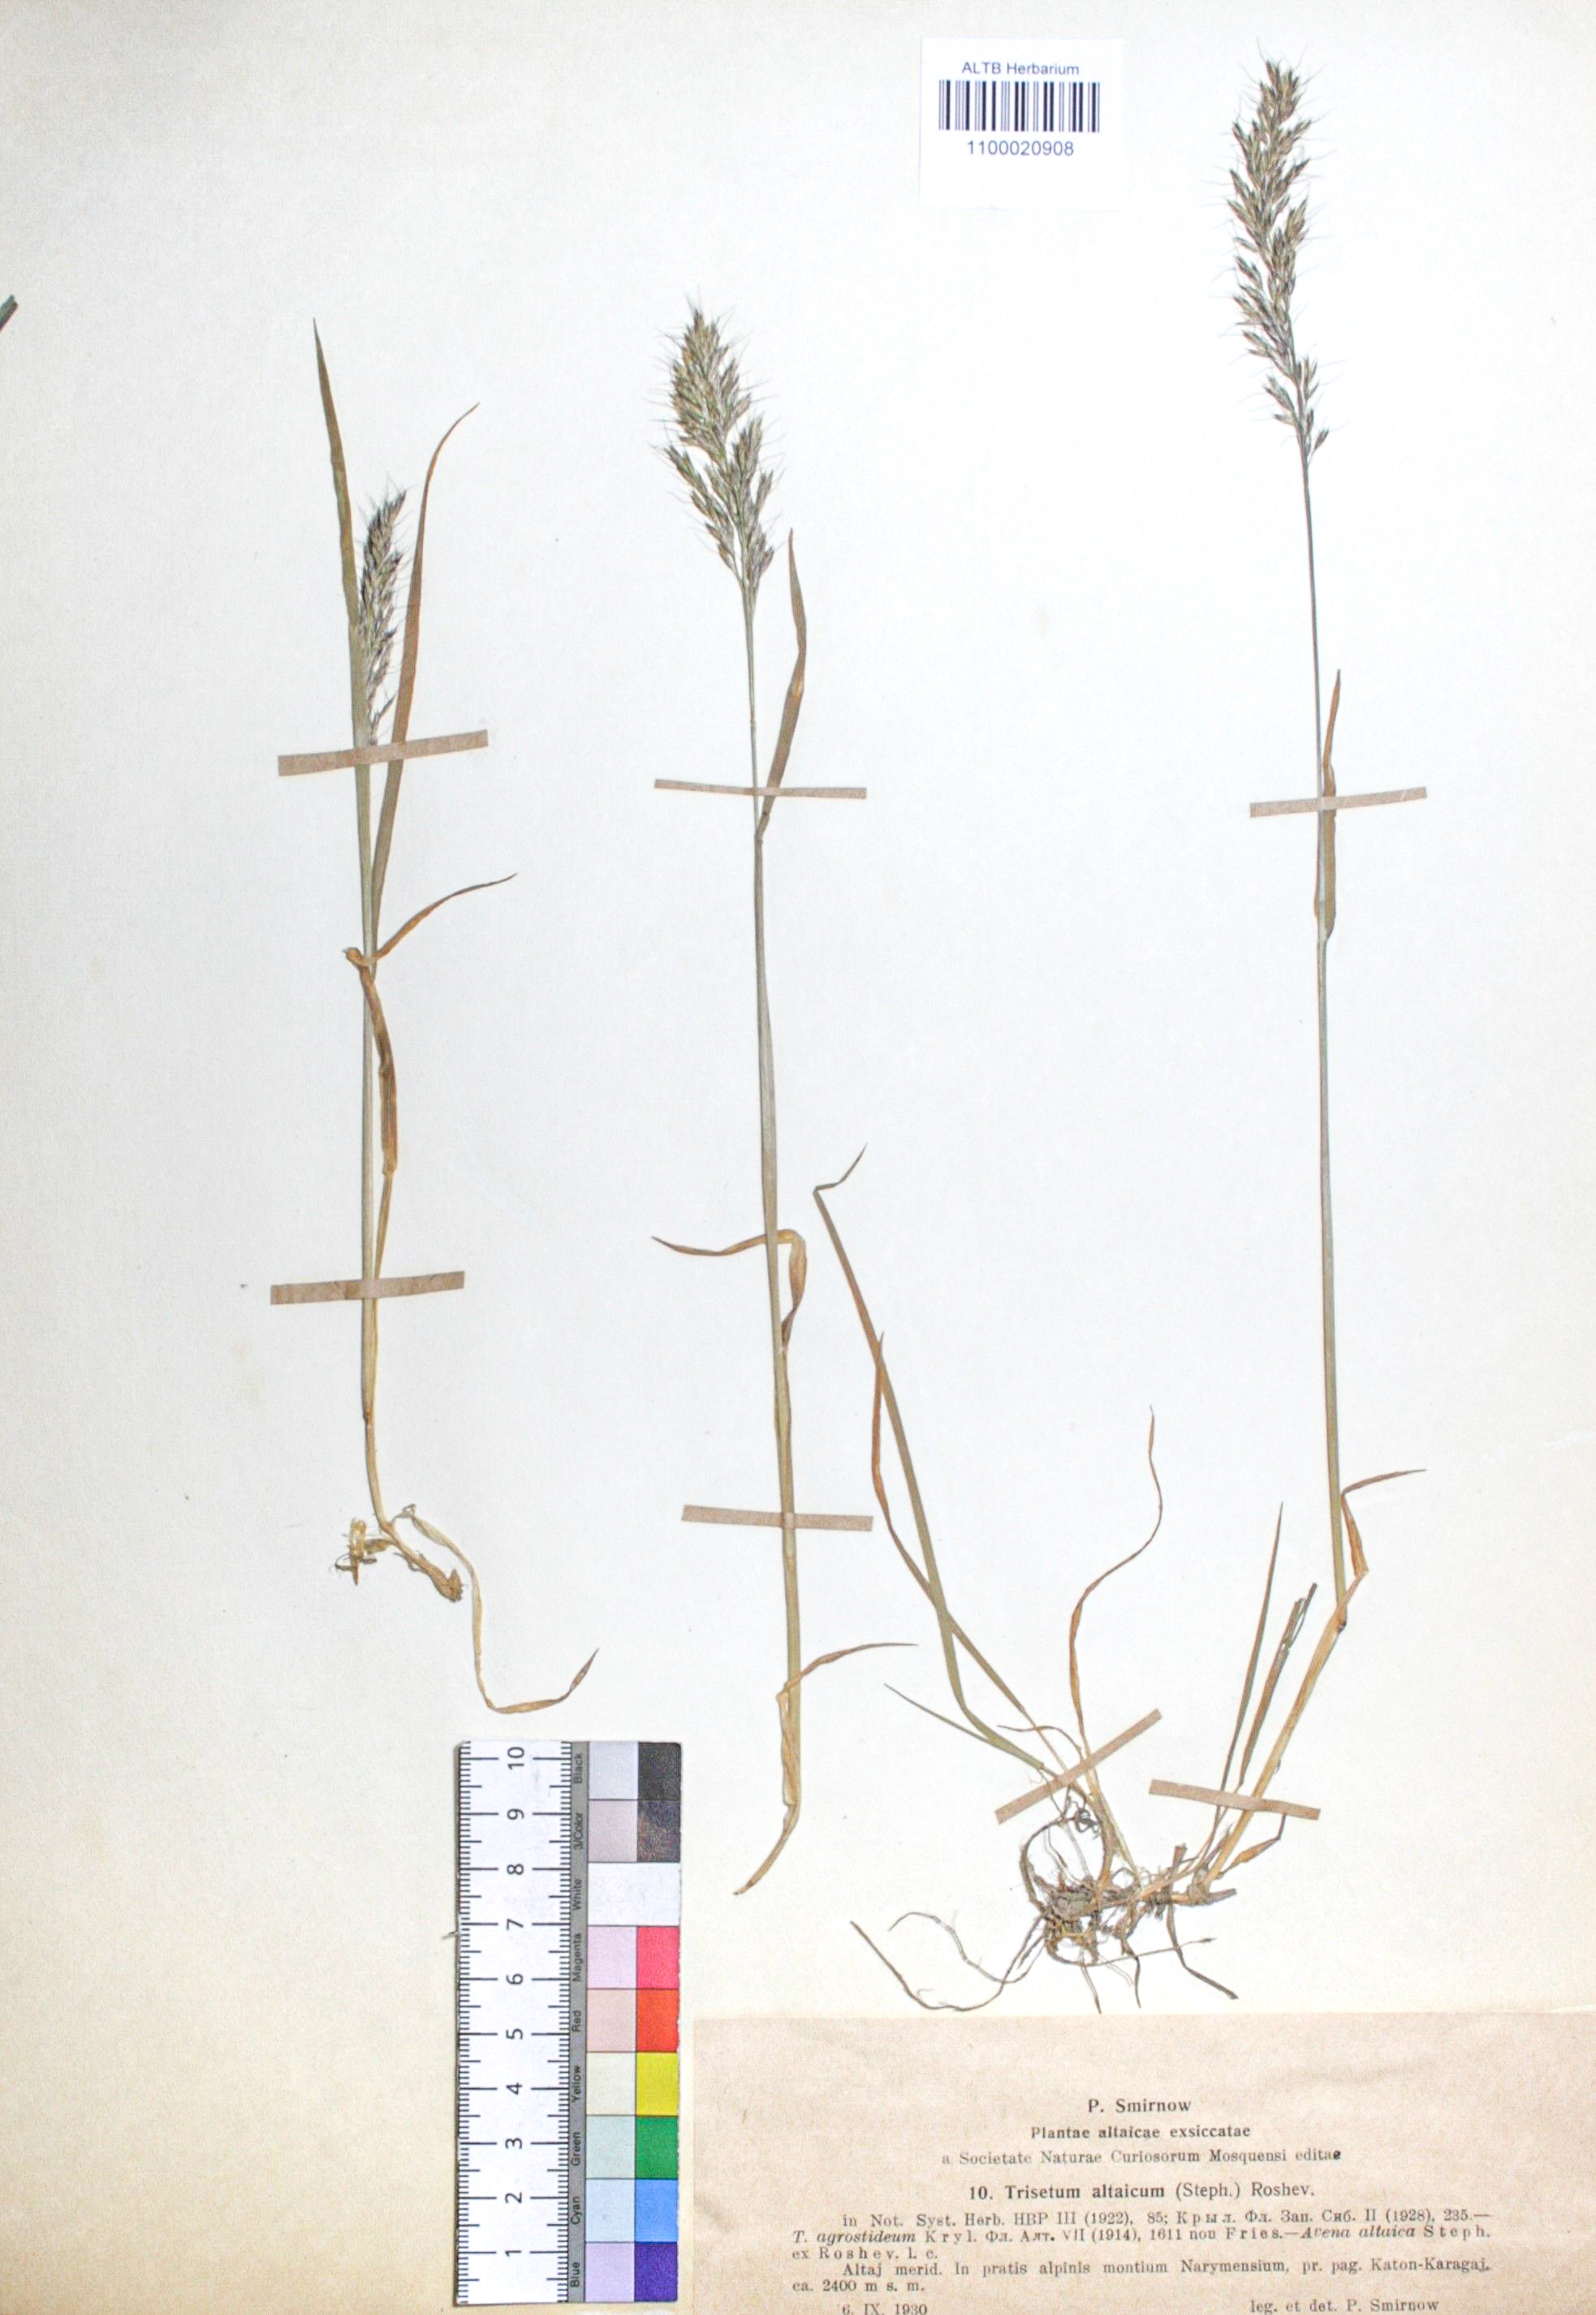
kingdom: Plantae
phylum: Tracheophyta
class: Liliopsida
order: Poales
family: Poaceae
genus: Trisetum
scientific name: Trisetum altaicum
